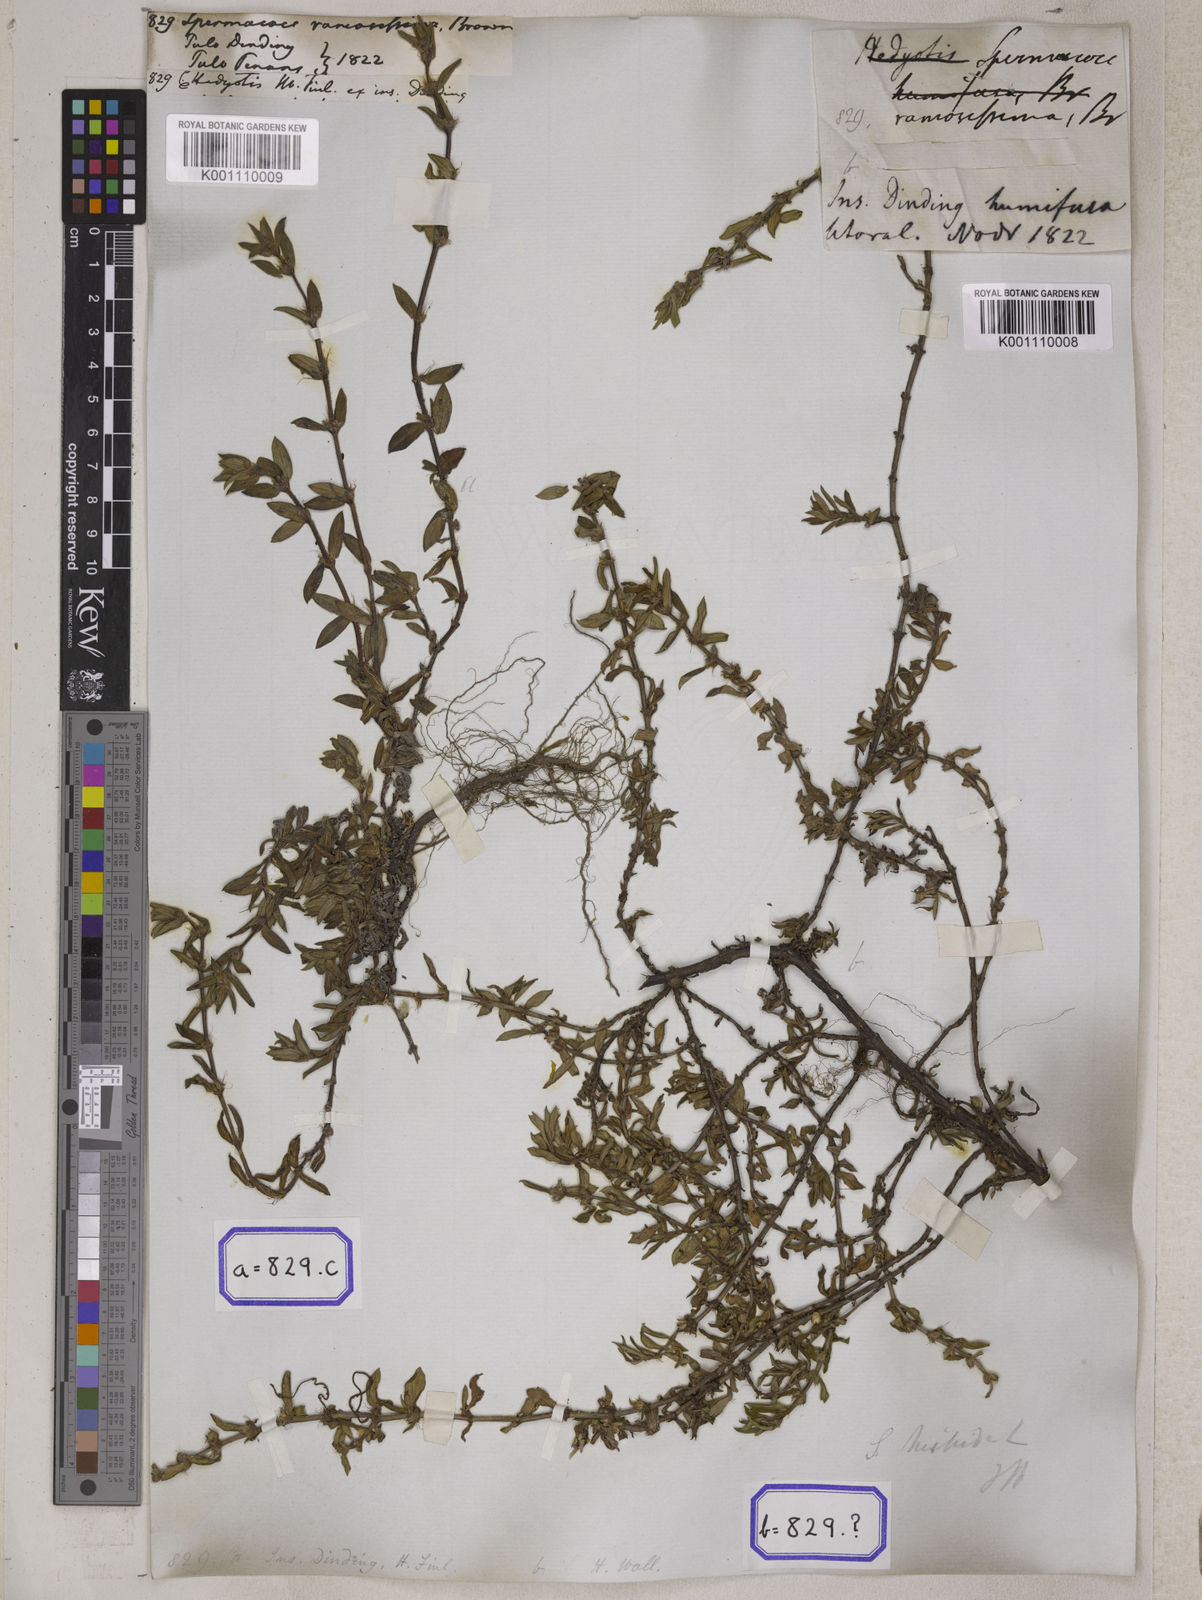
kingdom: Plantae
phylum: Tracheophyta
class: Magnoliopsida
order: Gentianales
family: Rubiaceae
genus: Spermacoce
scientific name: Spermacoce
